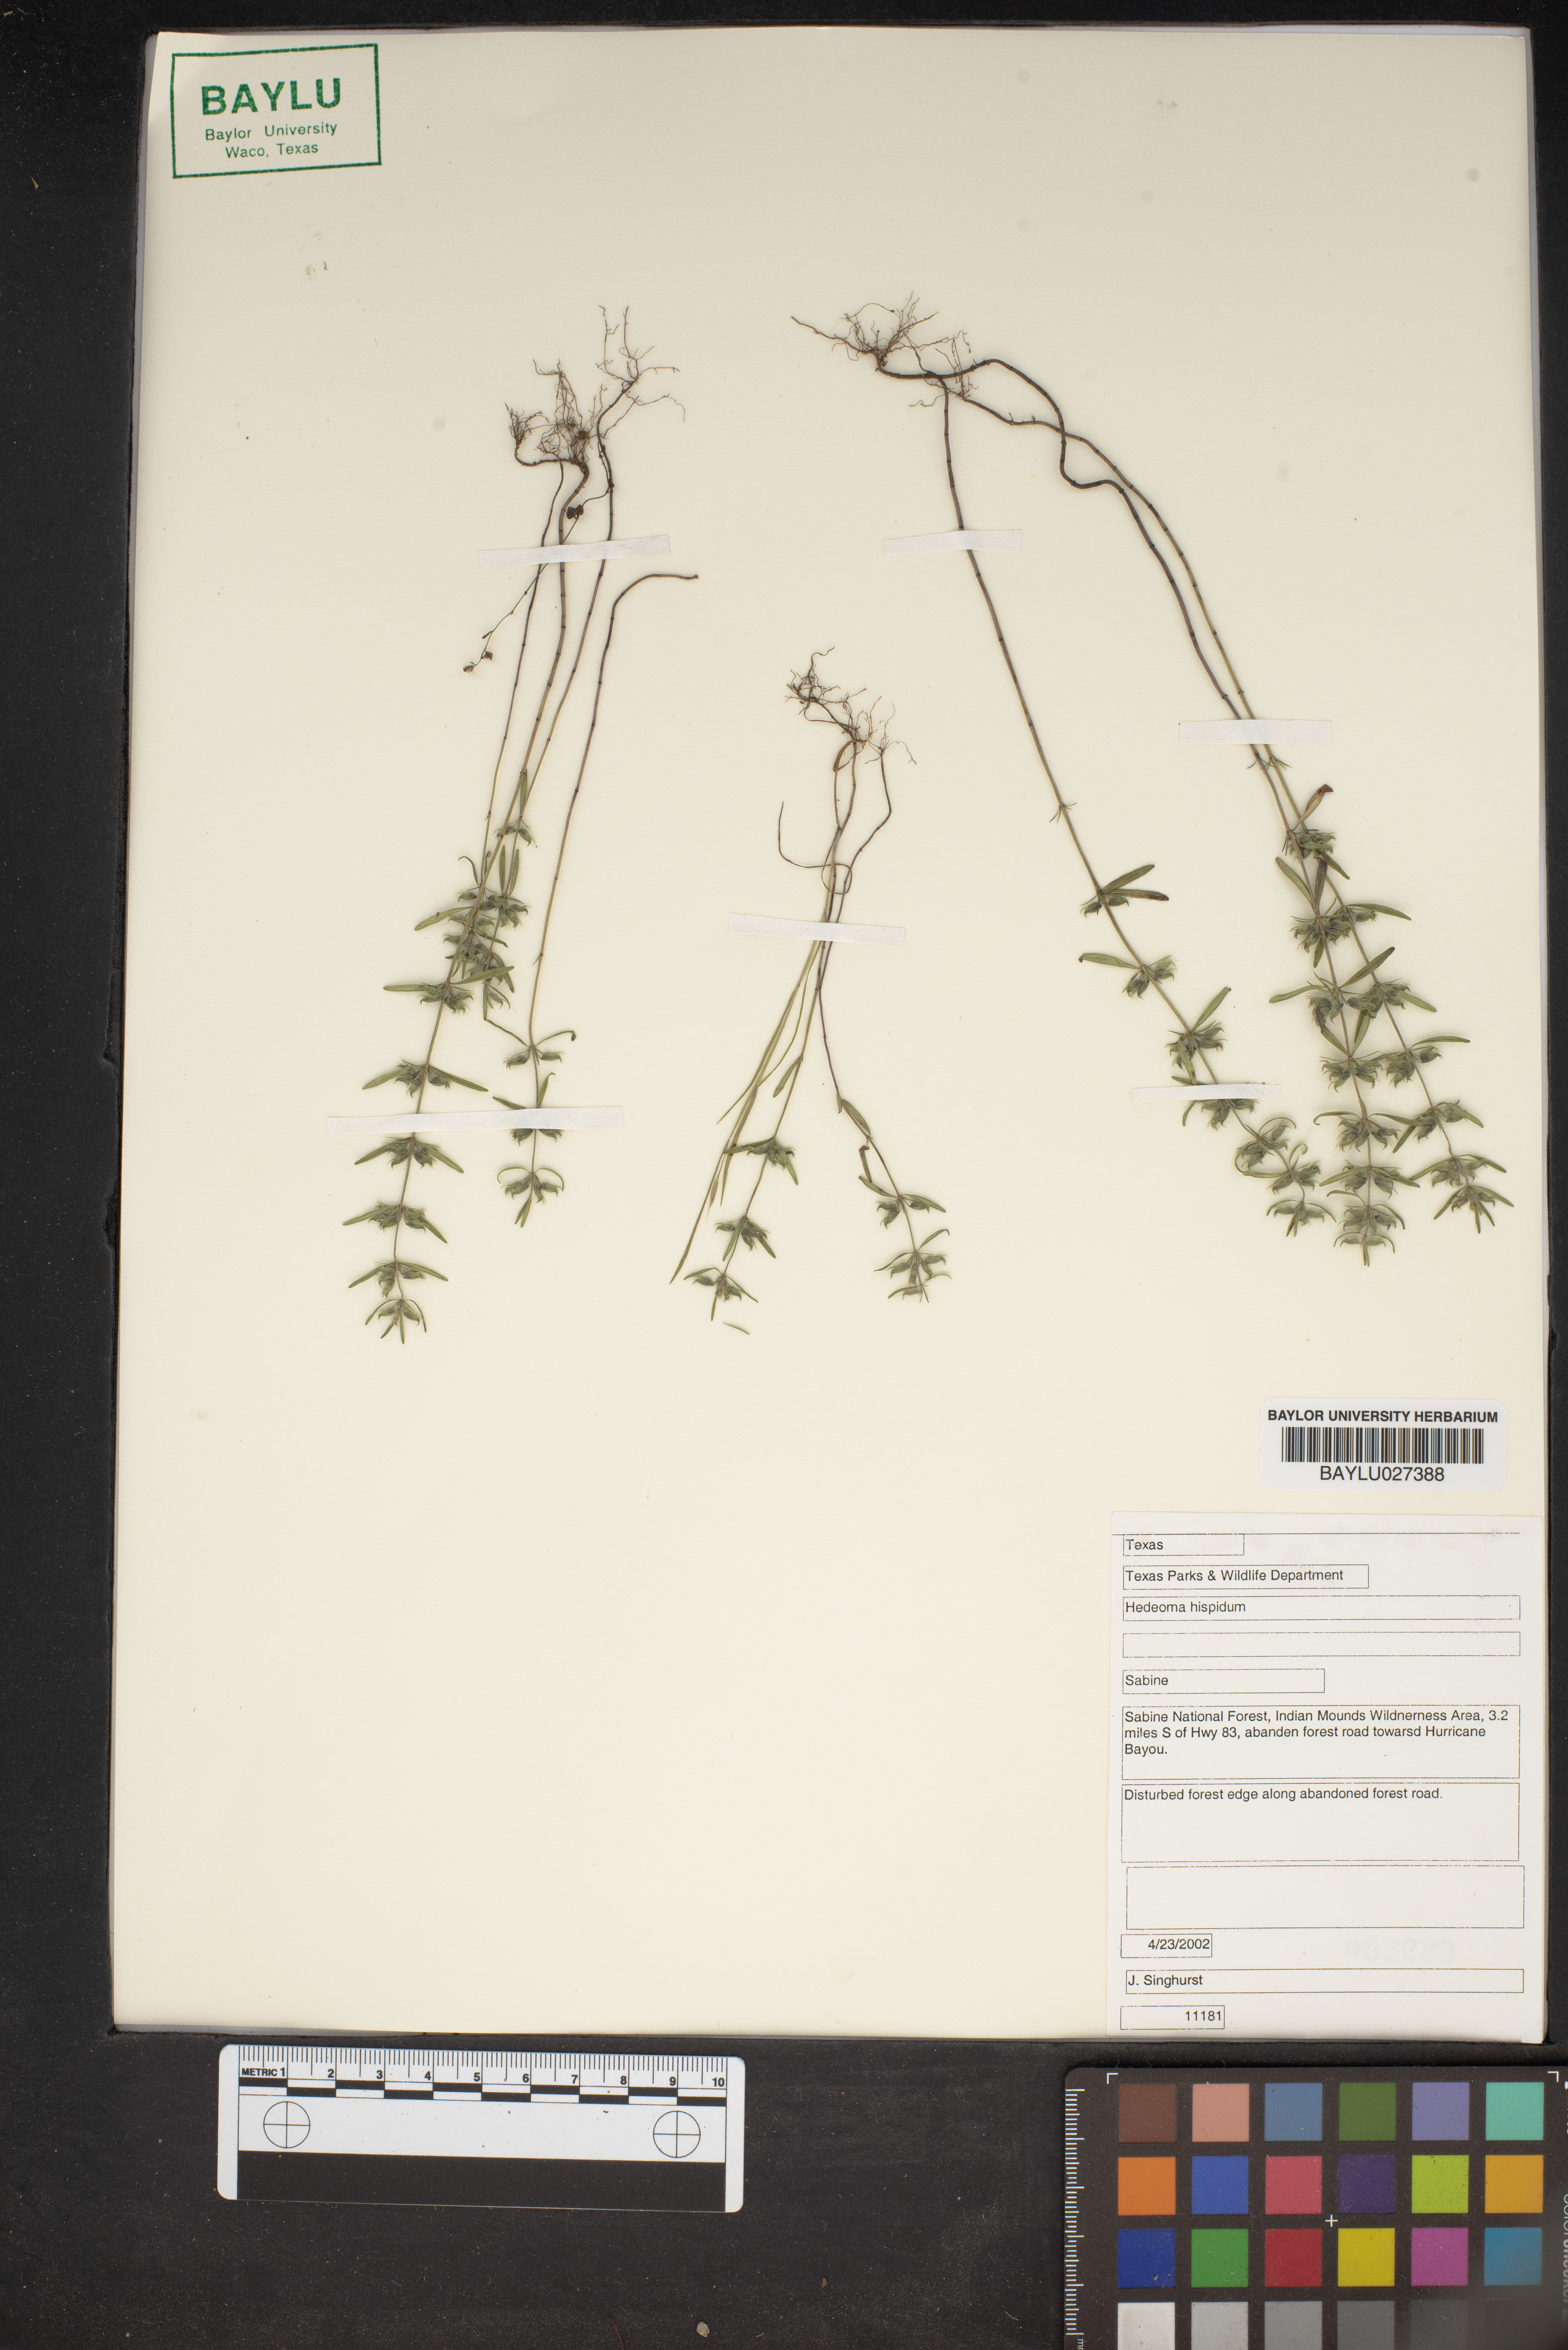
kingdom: Plantae
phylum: Tracheophyta
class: Magnoliopsida
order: Lamiales
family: Lamiaceae
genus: Hedeoma
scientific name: Hedeoma hispida
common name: Mock pennyroyal
